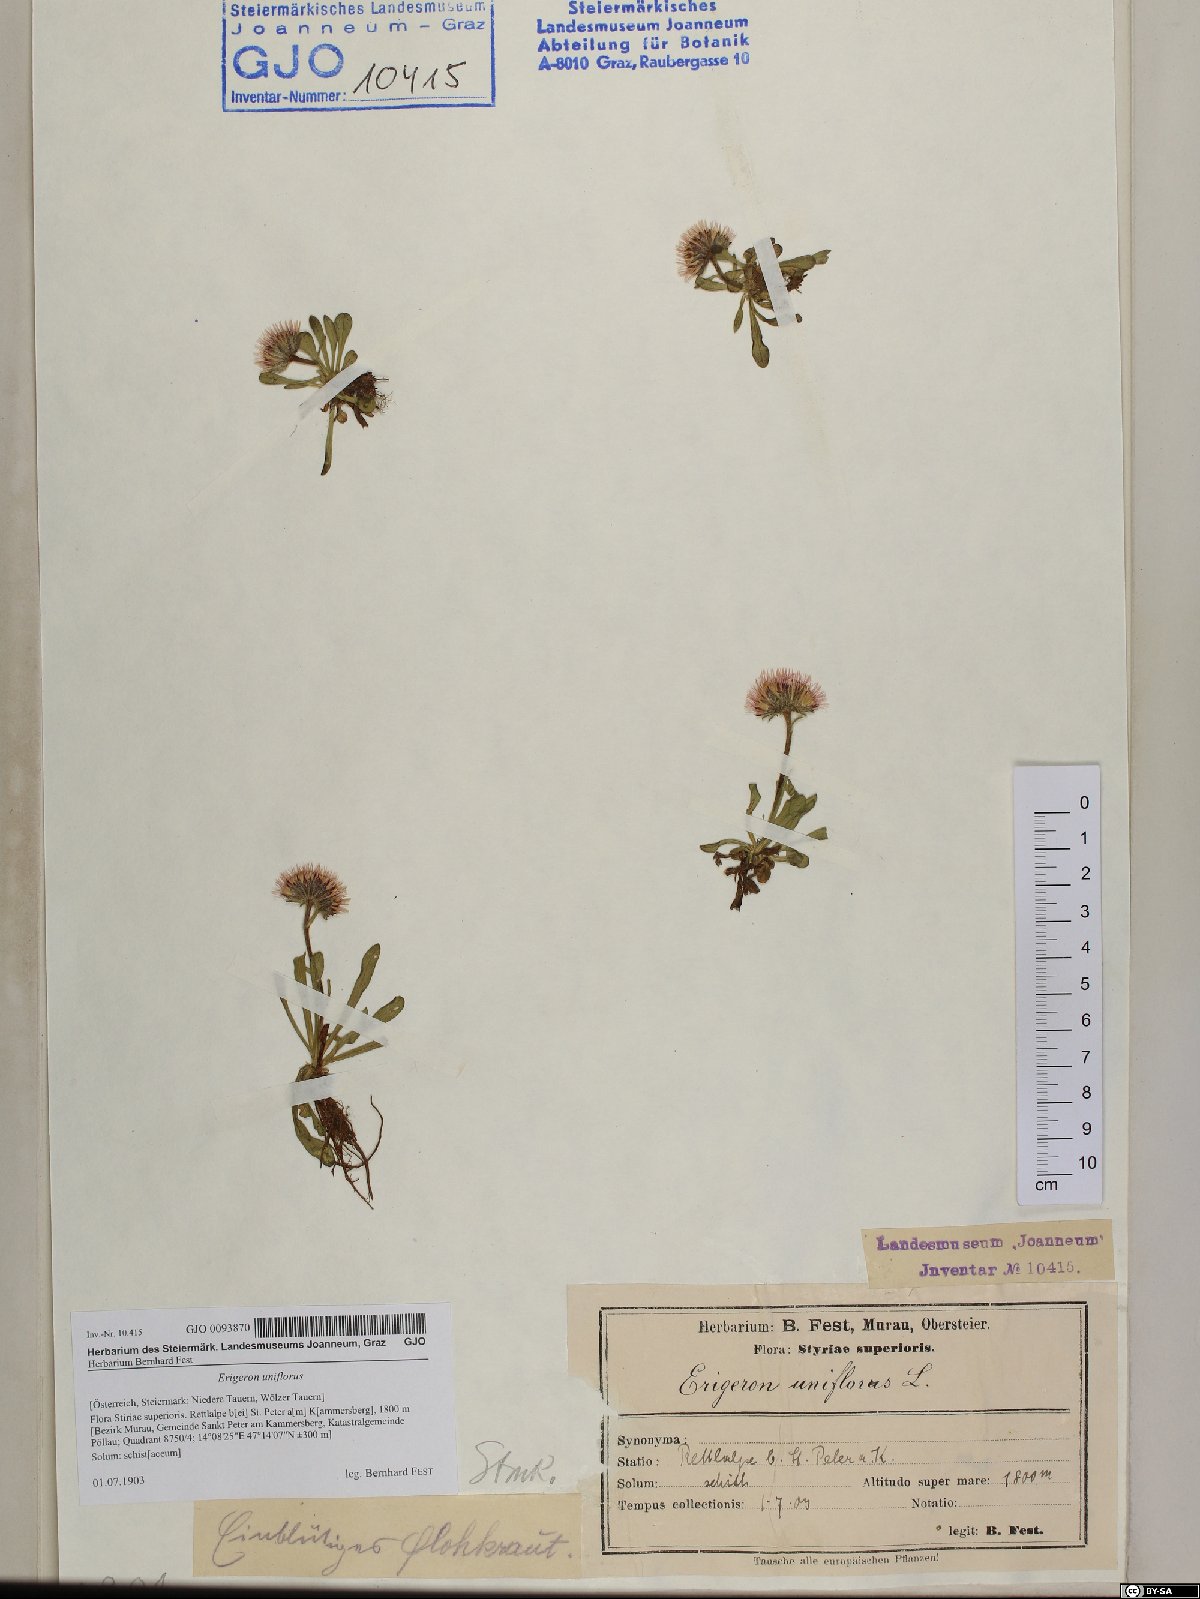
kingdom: Plantae
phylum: Tracheophyta
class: Magnoliopsida
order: Asterales
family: Asteraceae
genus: Erigeron
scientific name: Erigeron uniflorus
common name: Northern daisy
